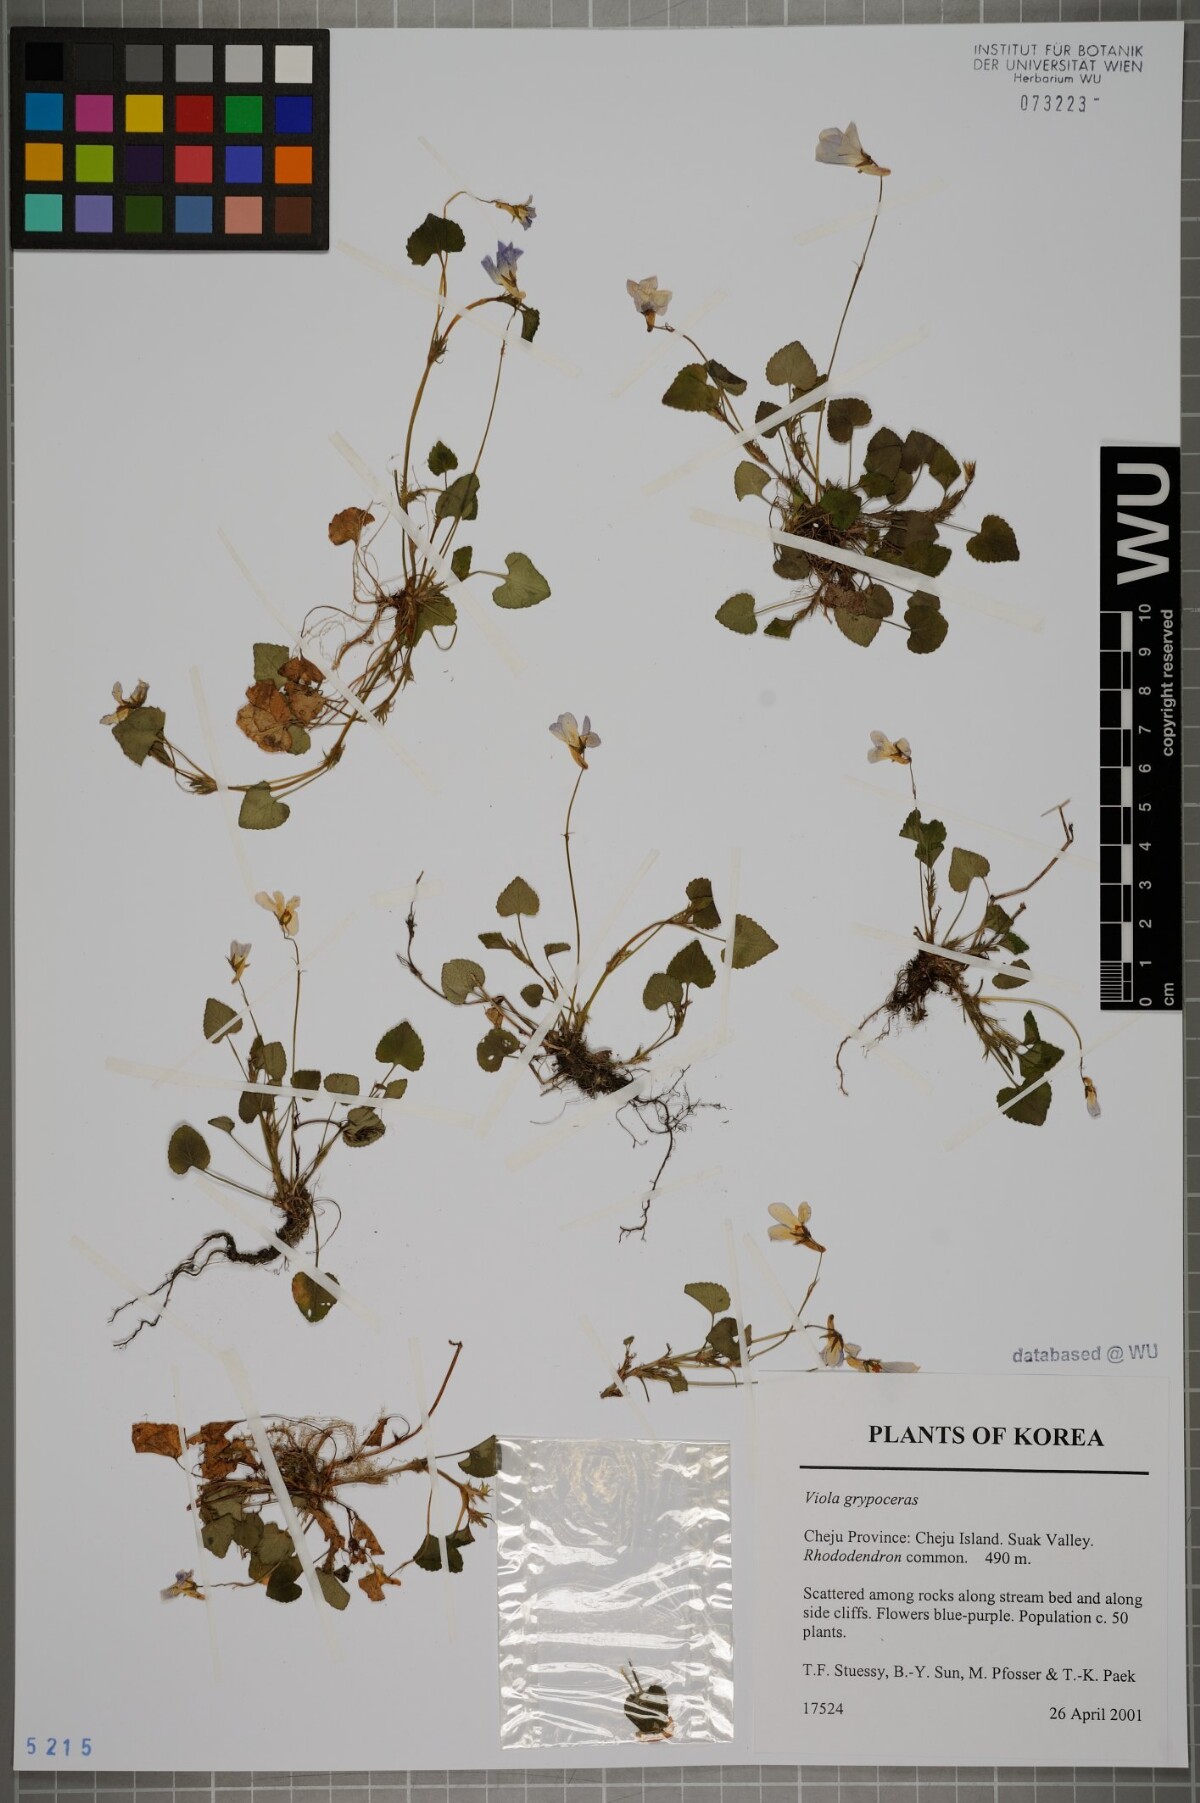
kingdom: Plantae
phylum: Tracheophyta
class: Magnoliopsida
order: Malpighiales
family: Violaceae
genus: Viola
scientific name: Viola grypoceras
